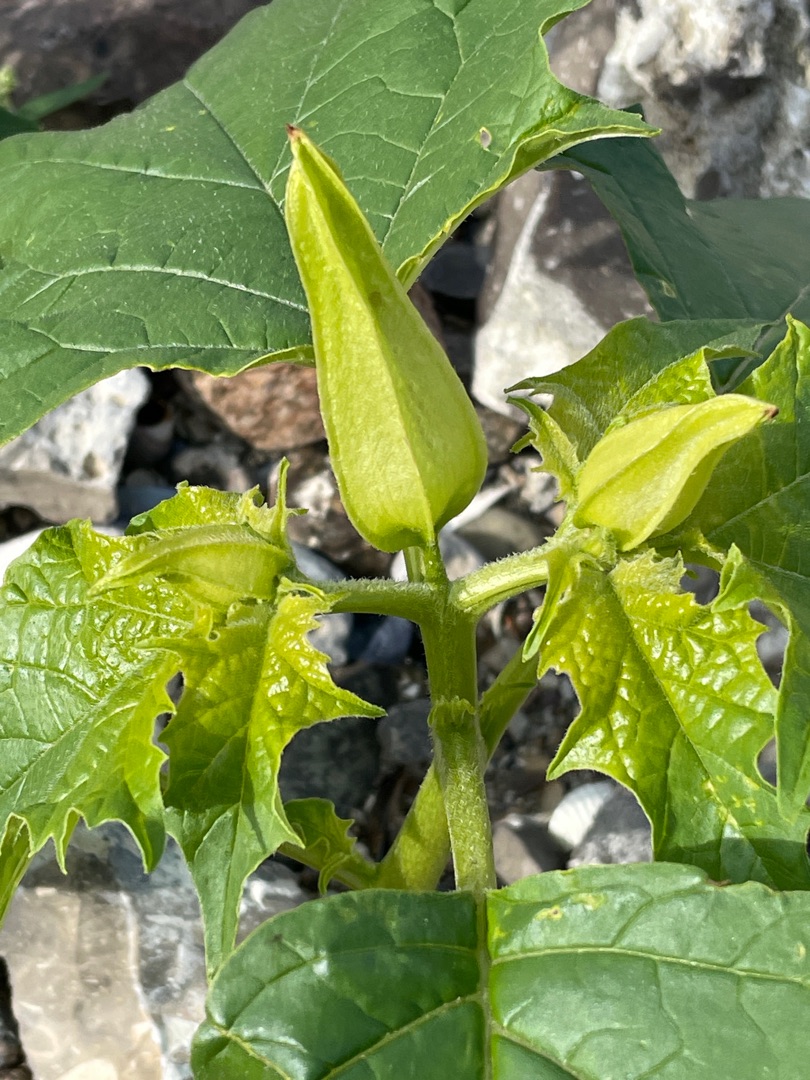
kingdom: Plantae
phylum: Tracheophyta
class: Magnoliopsida
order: Solanales
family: Solanaceae
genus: Datura
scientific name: Datura stramonium
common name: Pigæble
